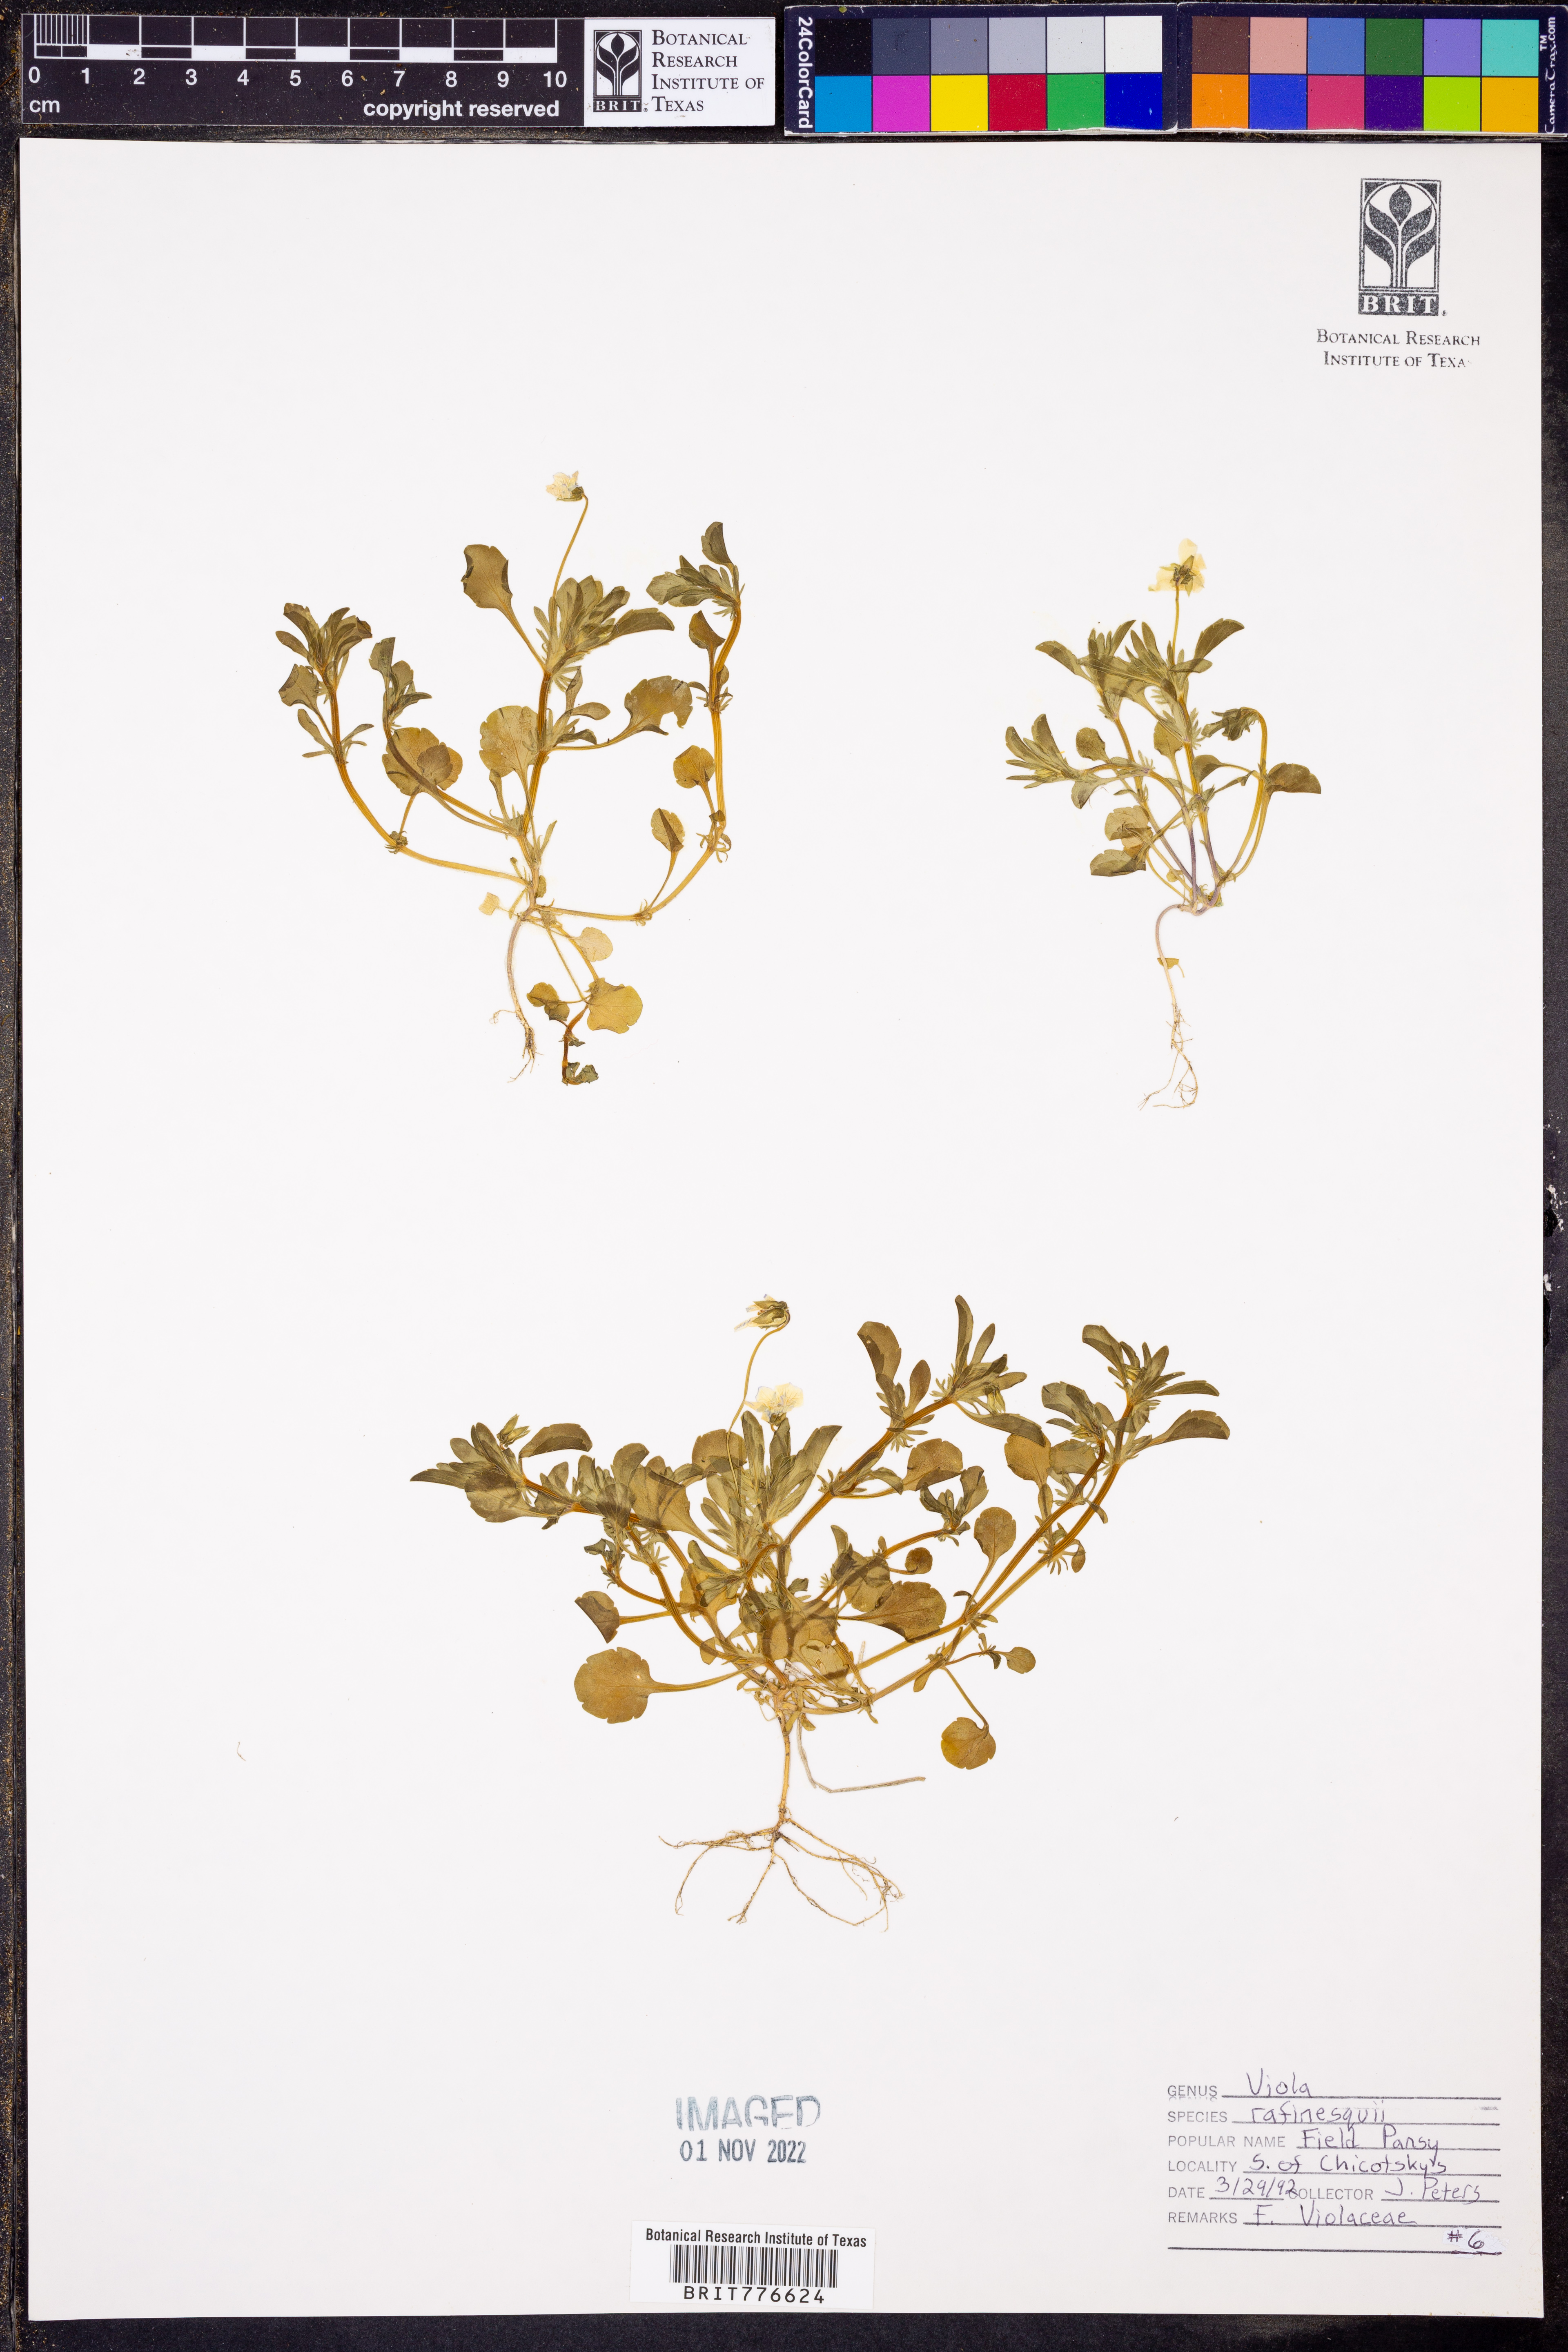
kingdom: Plantae
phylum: Tracheophyta
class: Magnoliopsida
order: Malpighiales
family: Violaceae
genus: Viola
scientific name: Viola rafinesquei
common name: American field pansy
